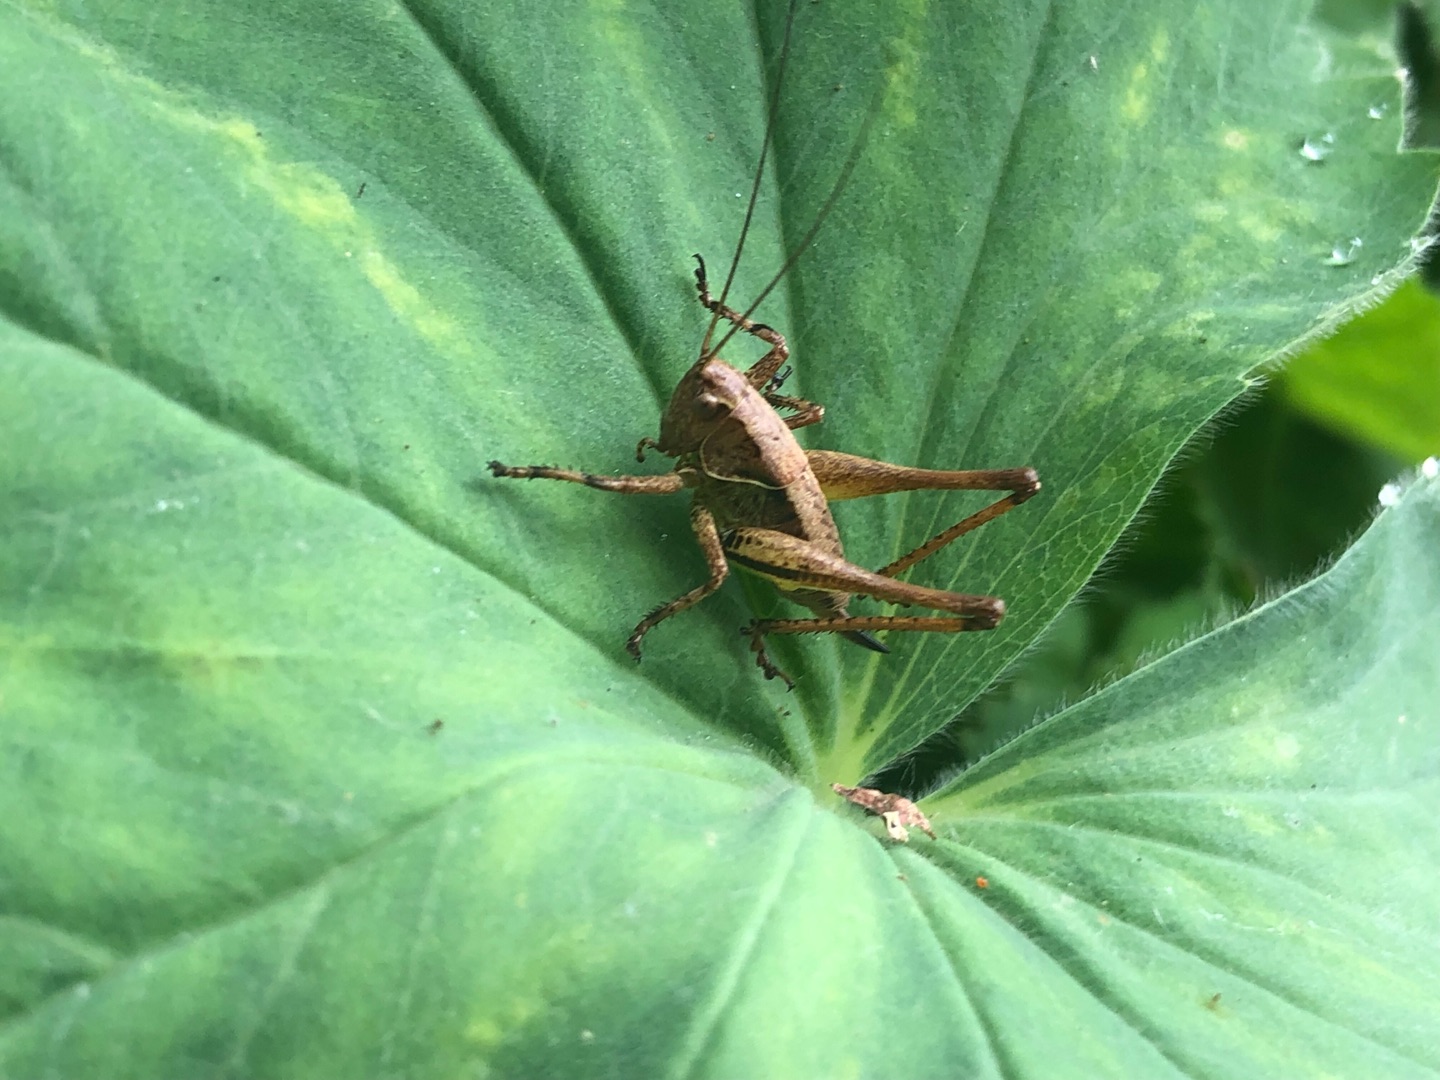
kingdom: Animalia
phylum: Arthropoda
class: Insecta
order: Orthoptera
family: Tettigoniidae
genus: Pholidoptera
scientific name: Pholidoptera griseoaptera
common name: Buskgræshoppe
